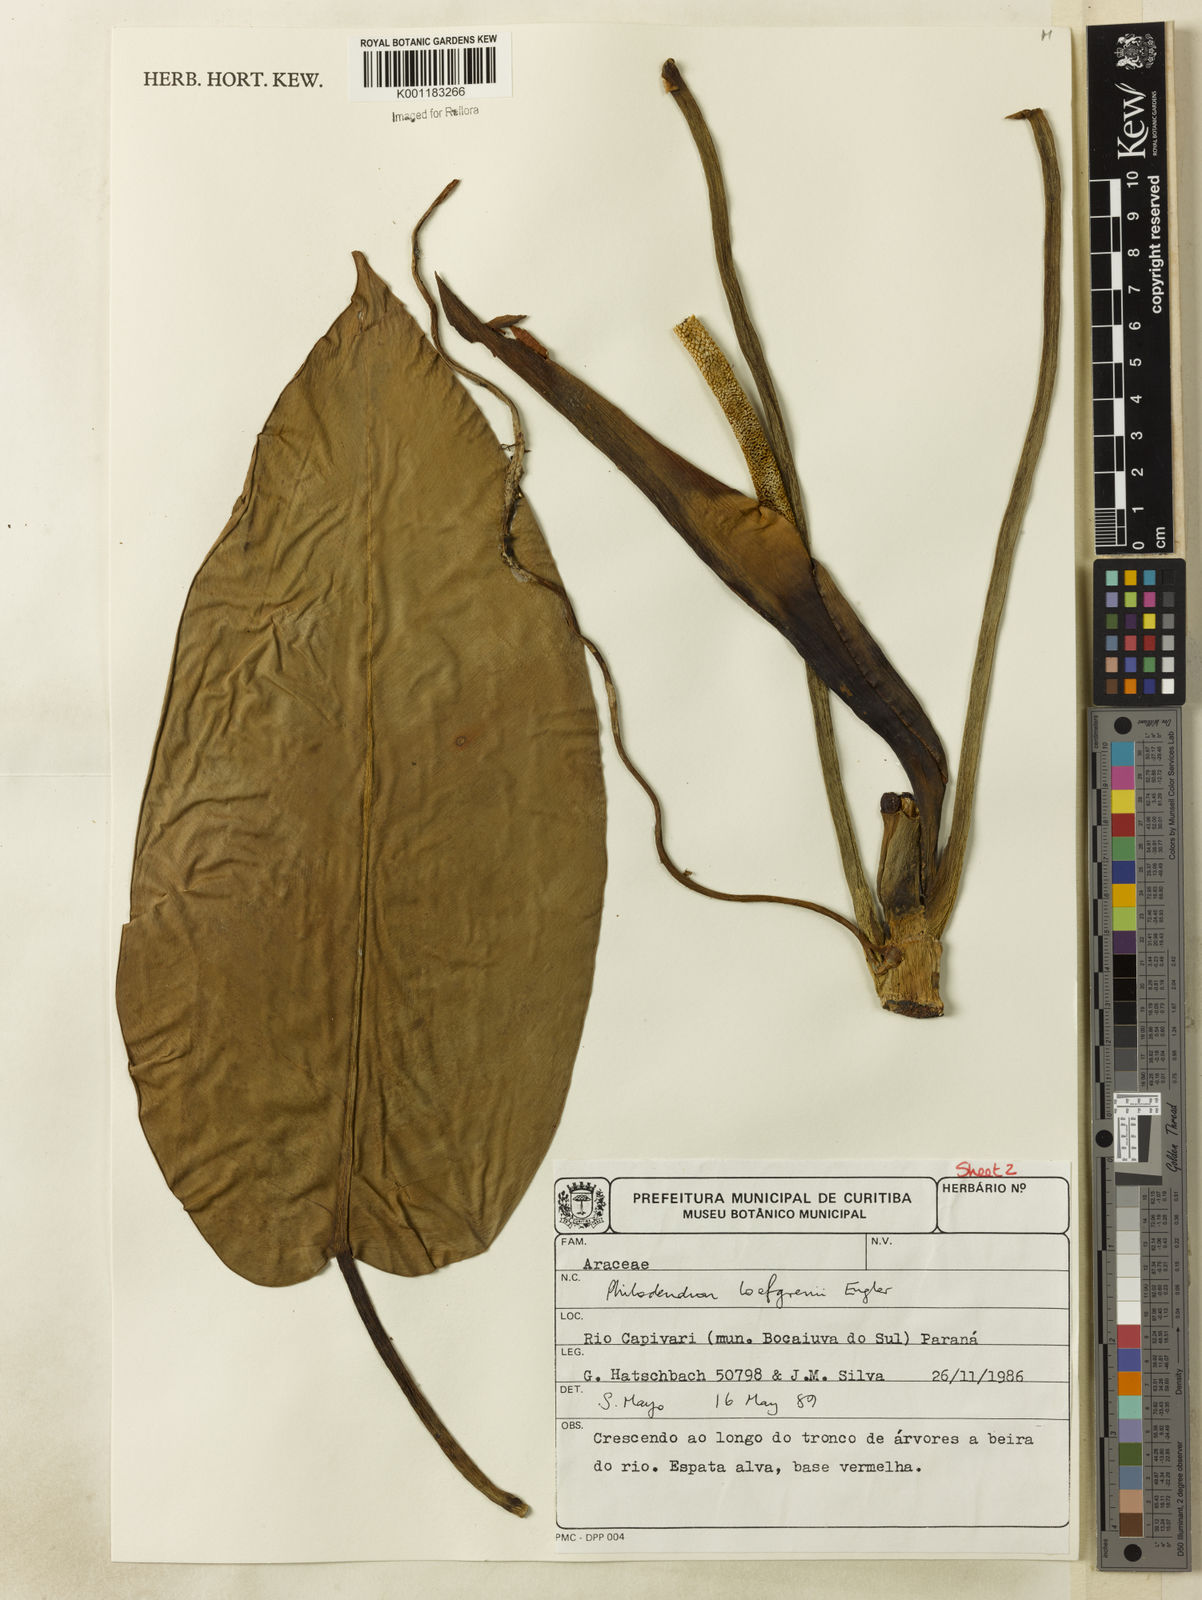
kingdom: Plantae
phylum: Tracheophyta
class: Liliopsida
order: Alismatales
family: Araceae
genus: Philodendron
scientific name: Philodendron loefgrenii
